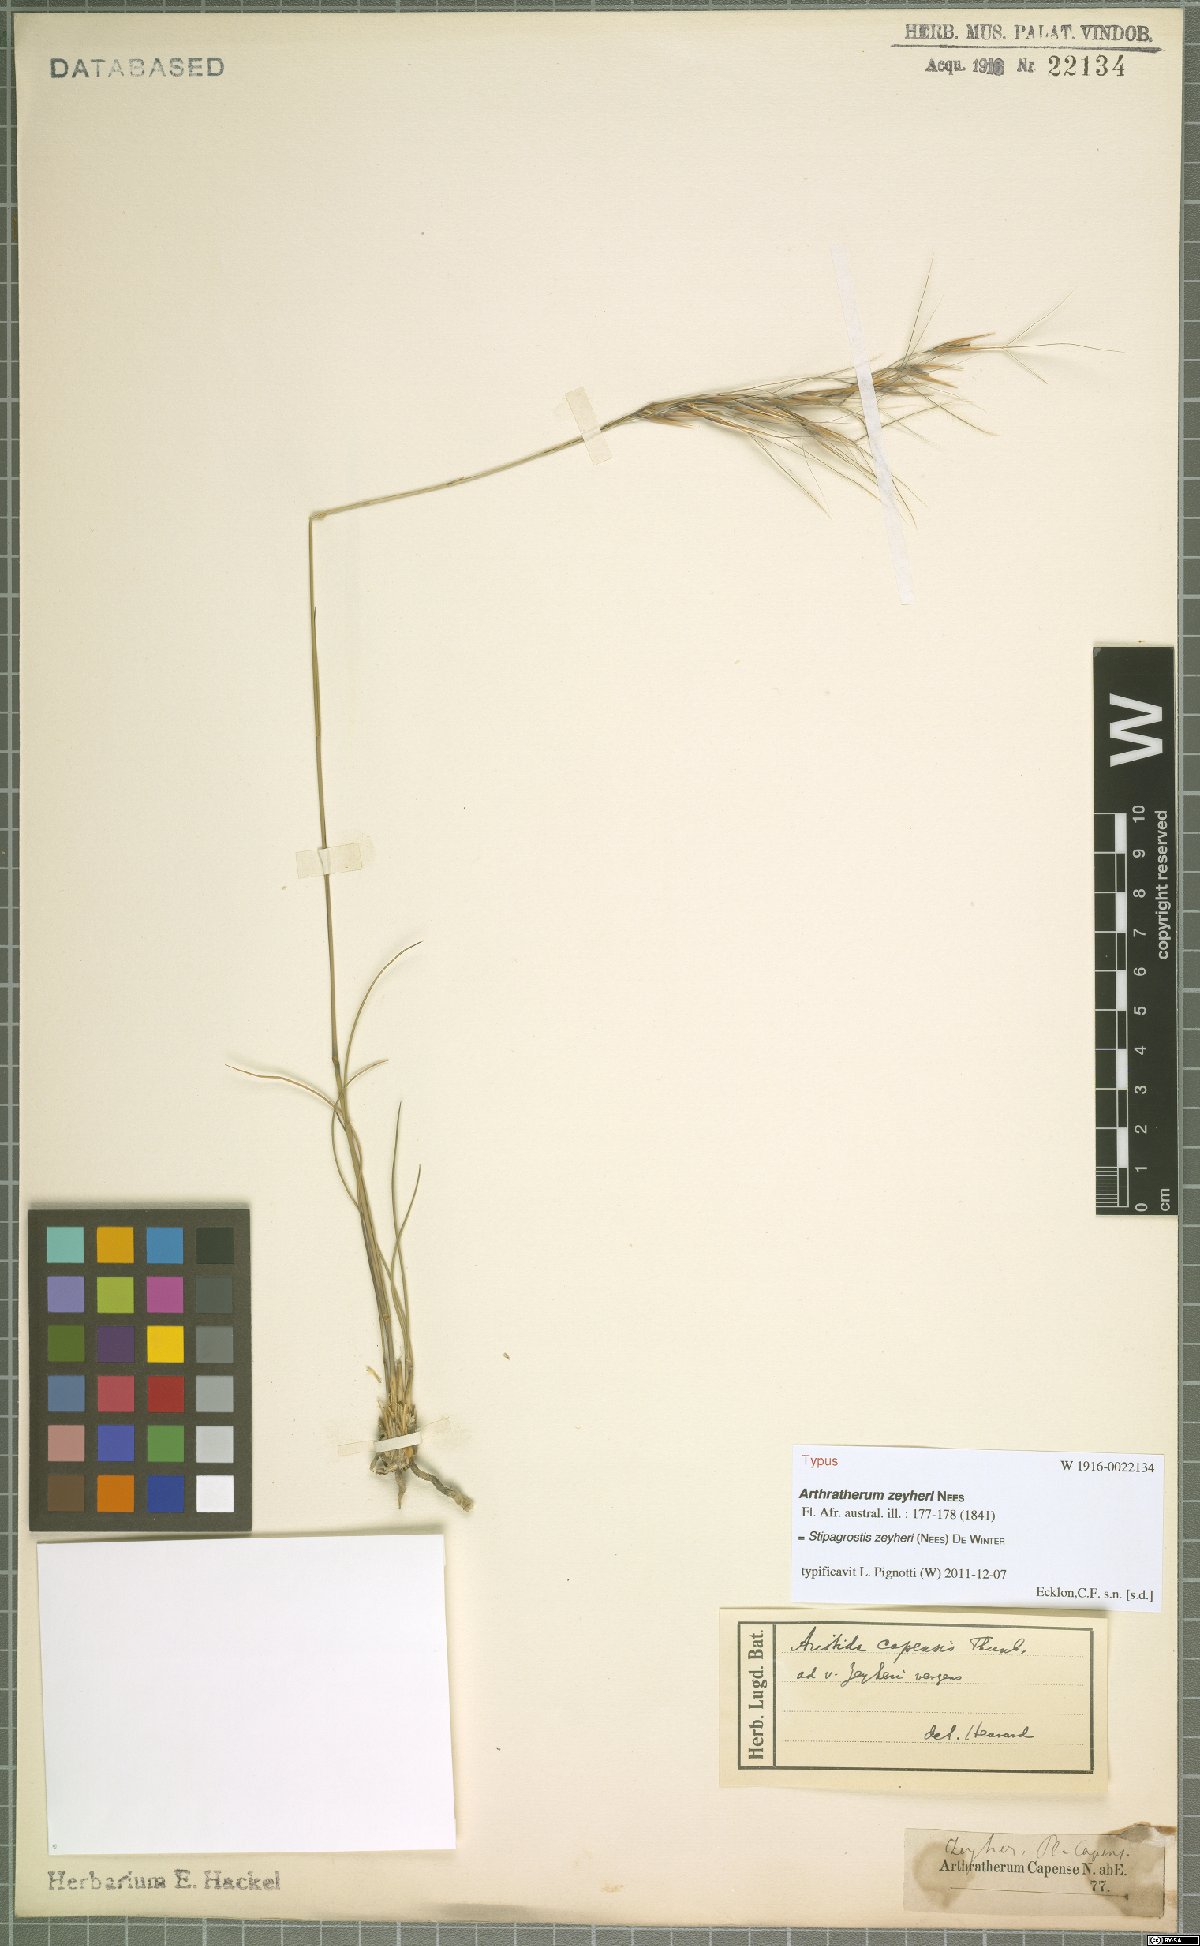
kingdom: Plantae
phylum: Tracheophyta
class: Liliopsida
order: Poales
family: Poaceae
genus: Stipagrostis
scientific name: Stipagrostis zeyheri
